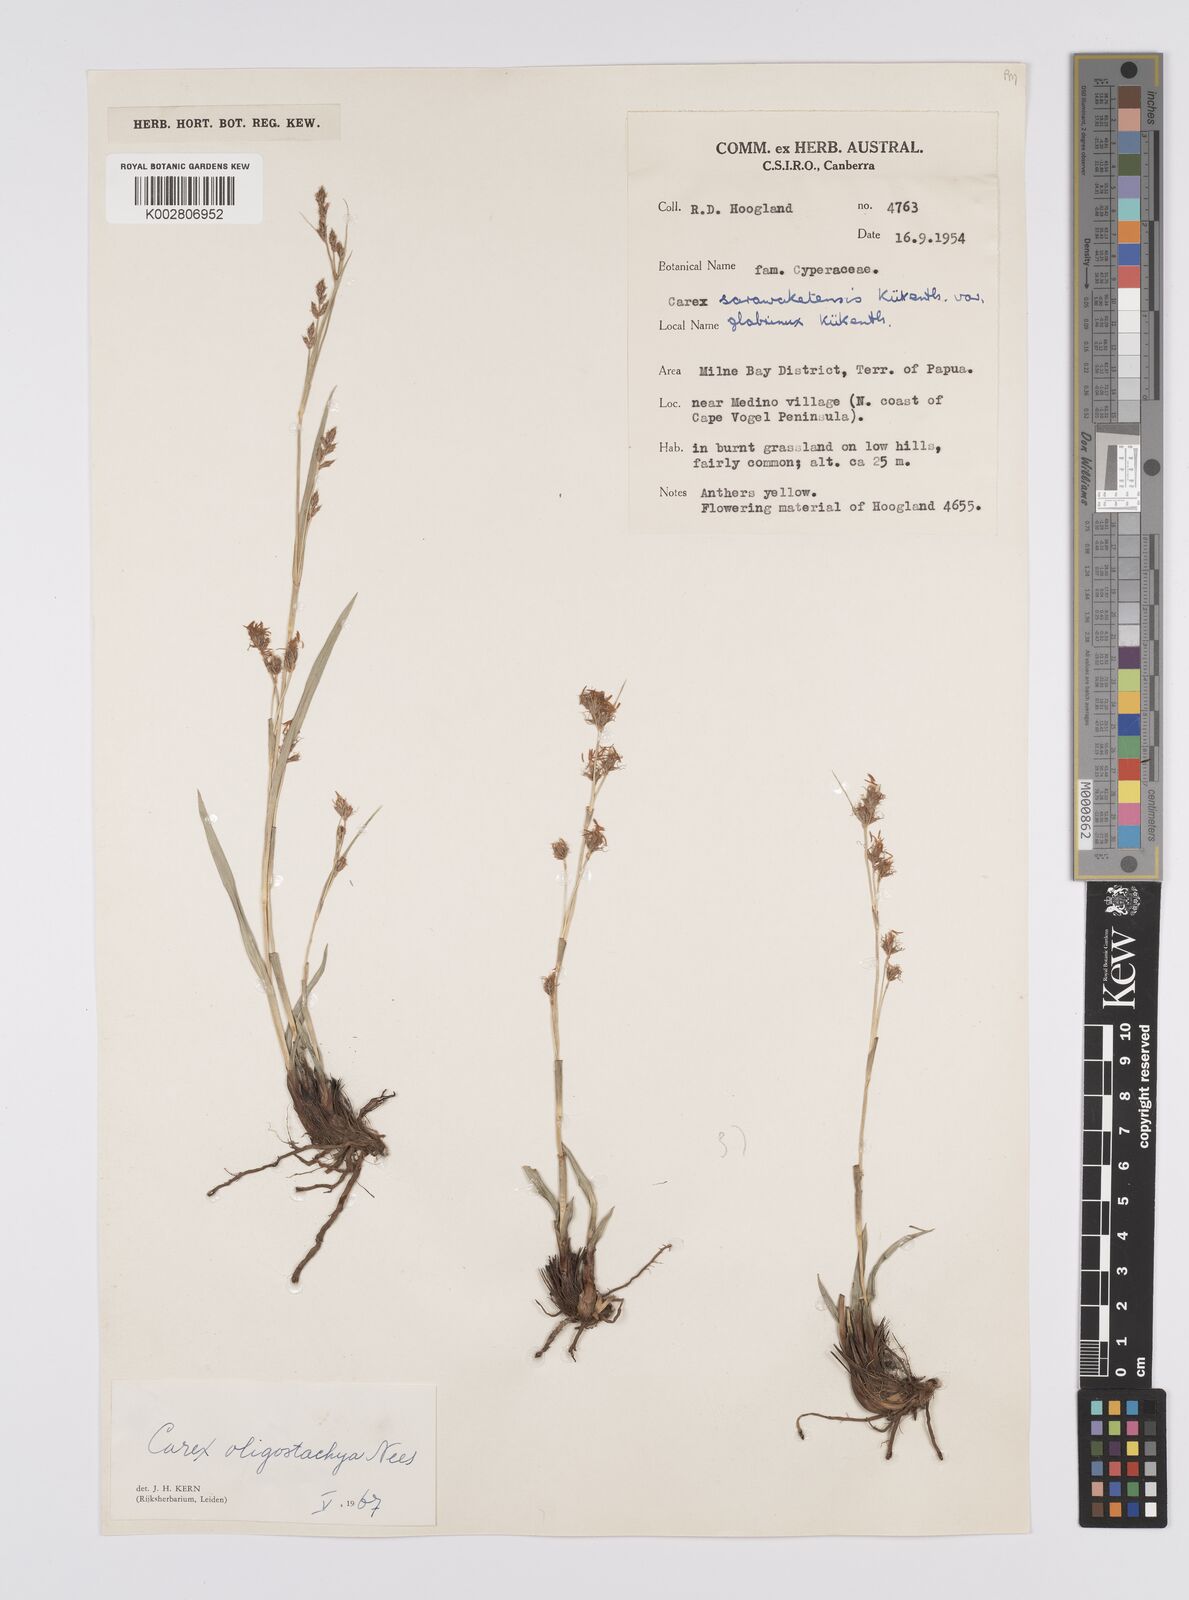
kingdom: Plantae
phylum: Tracheophyta
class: Liliopsida
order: Poales
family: Cyperaceae
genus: Carex
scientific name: Carex oligostachya
